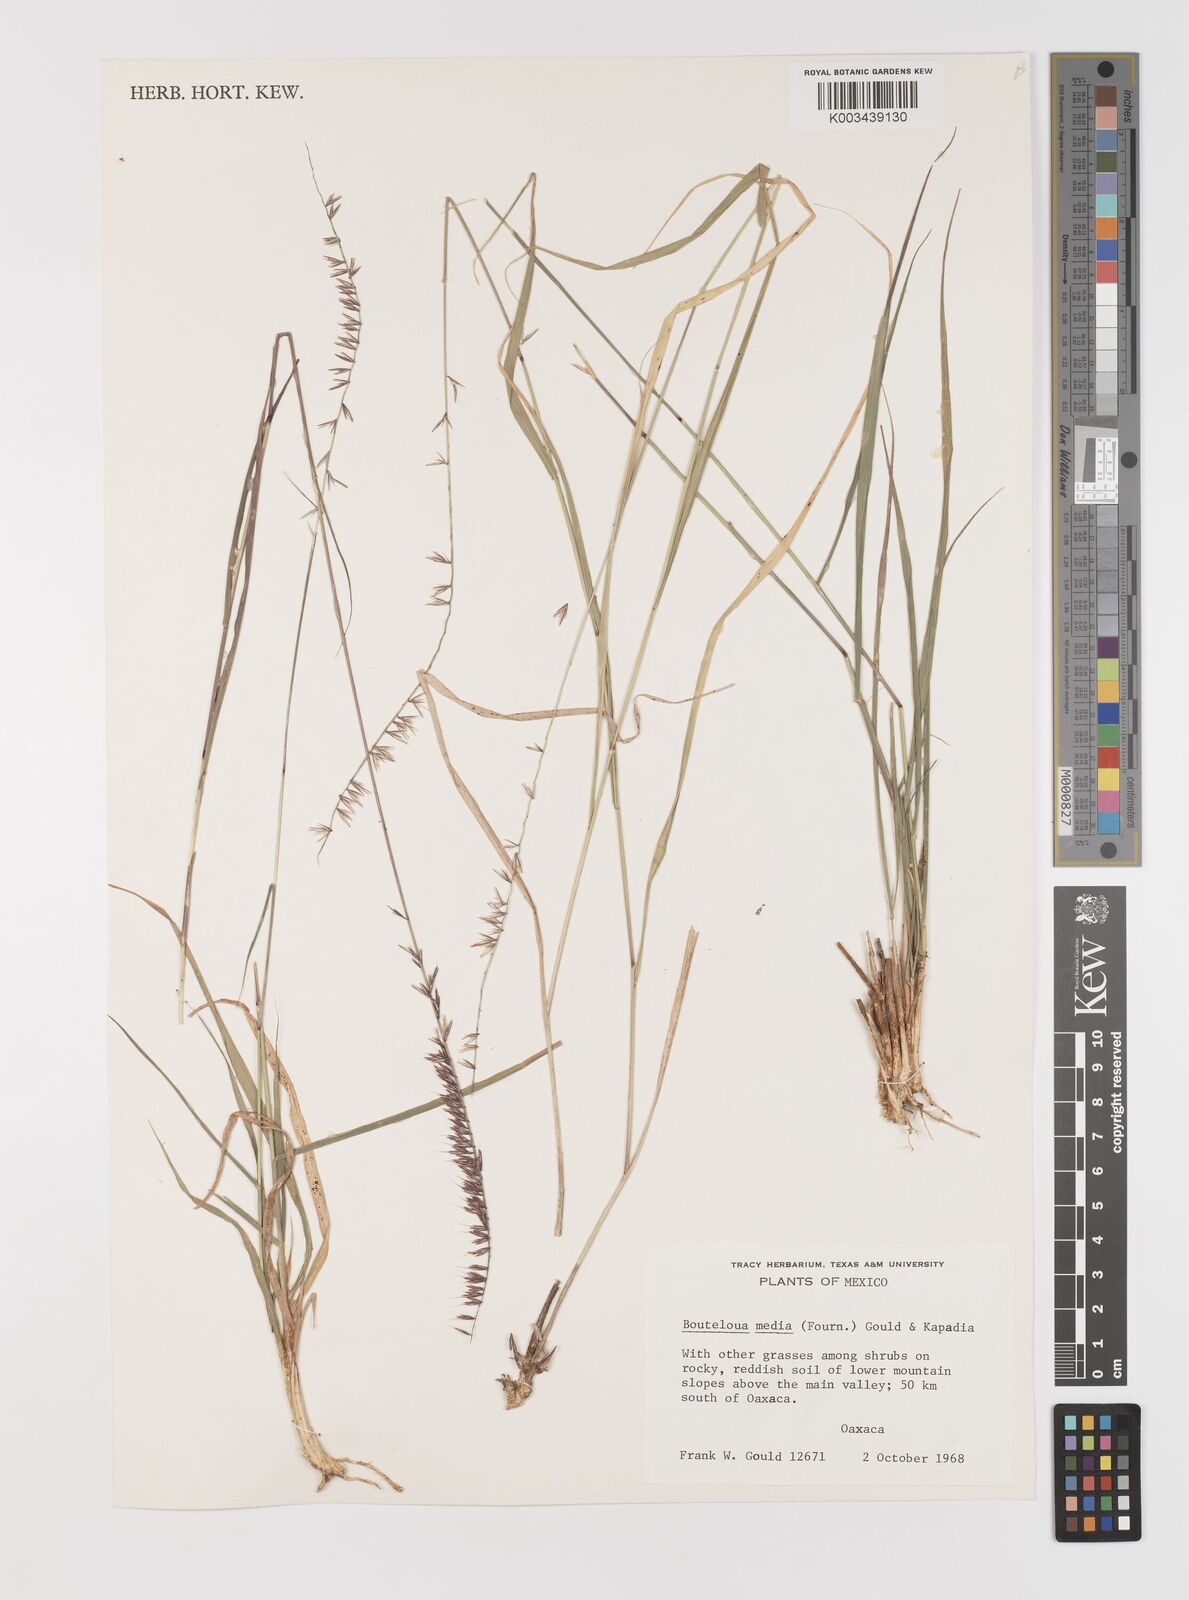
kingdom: Plantae
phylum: Tracheophyta
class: Liliopsida
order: Poales
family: Poaceae
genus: Bouteloua
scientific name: Bouteloua media
